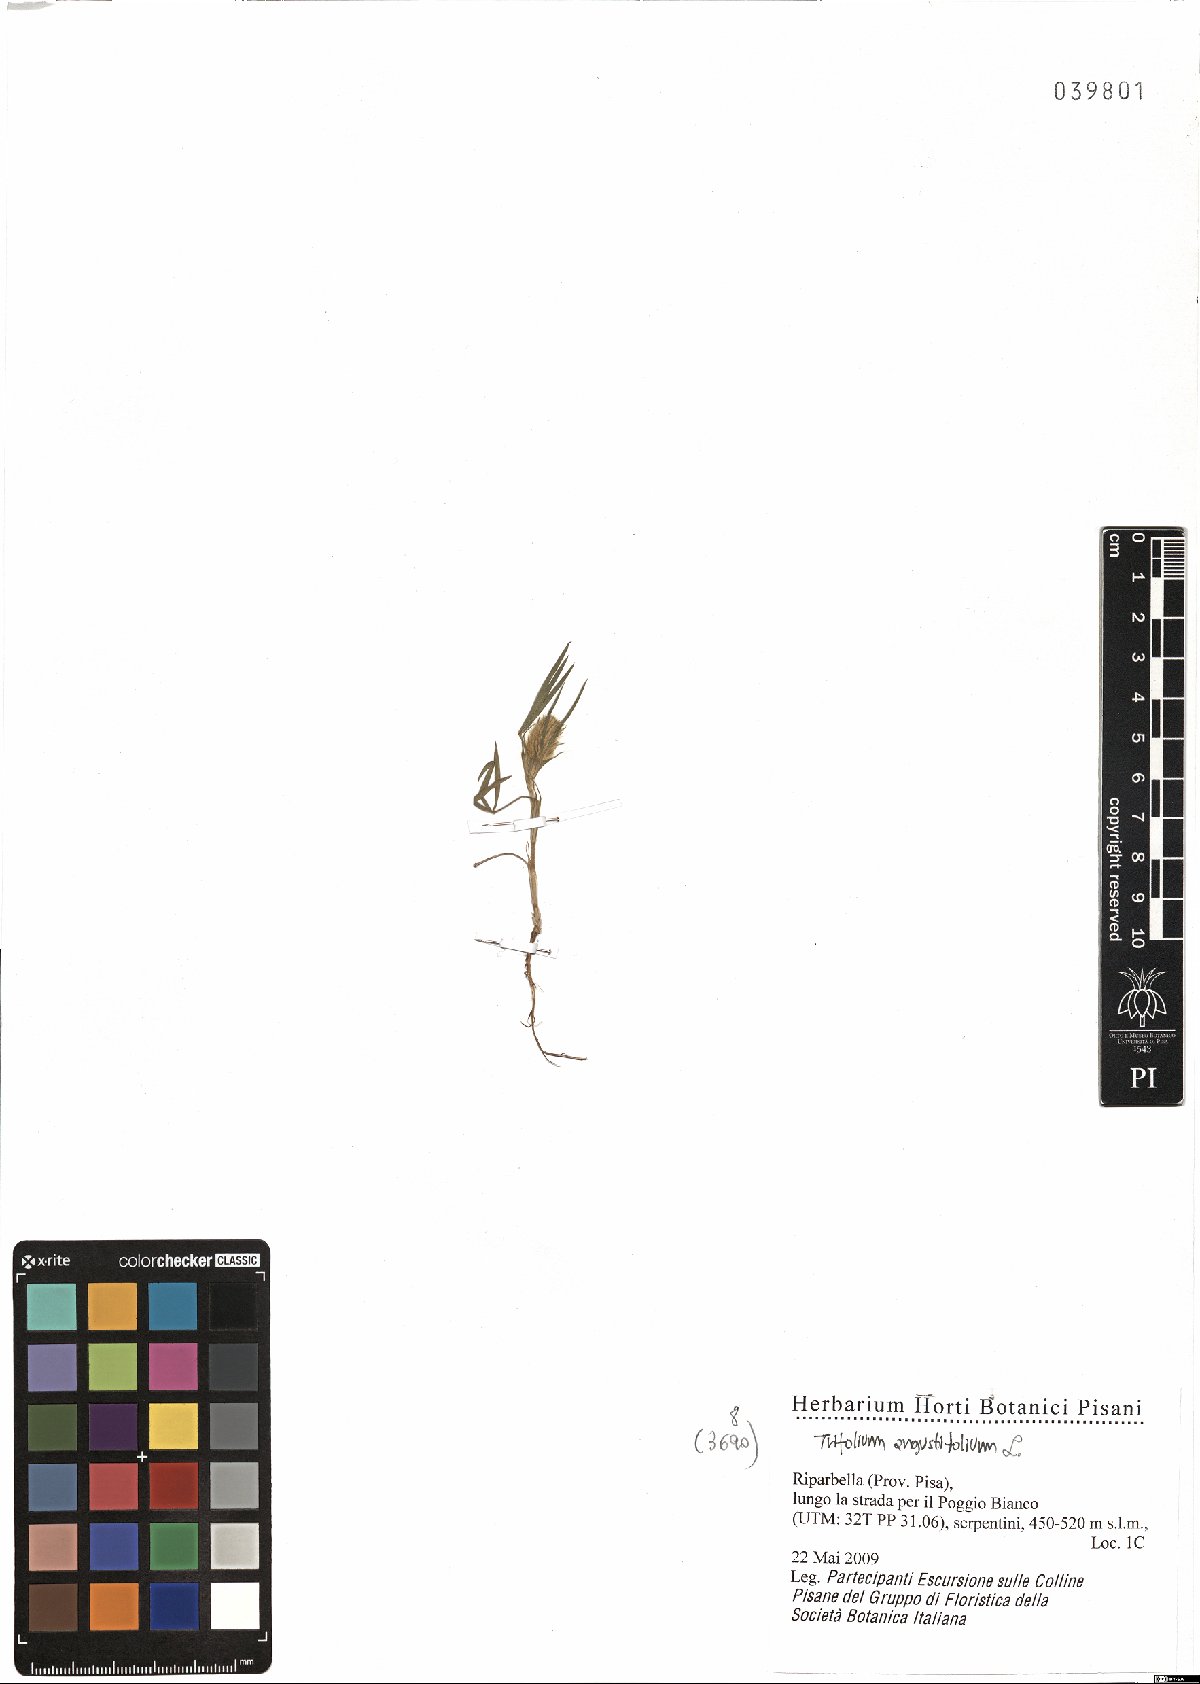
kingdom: Plantae
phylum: Tracheophyta
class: Magnoliopsida
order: Fabales
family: Fabaceae
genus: Trifolium
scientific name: Trifolium angustifolium
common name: Narrow clover
